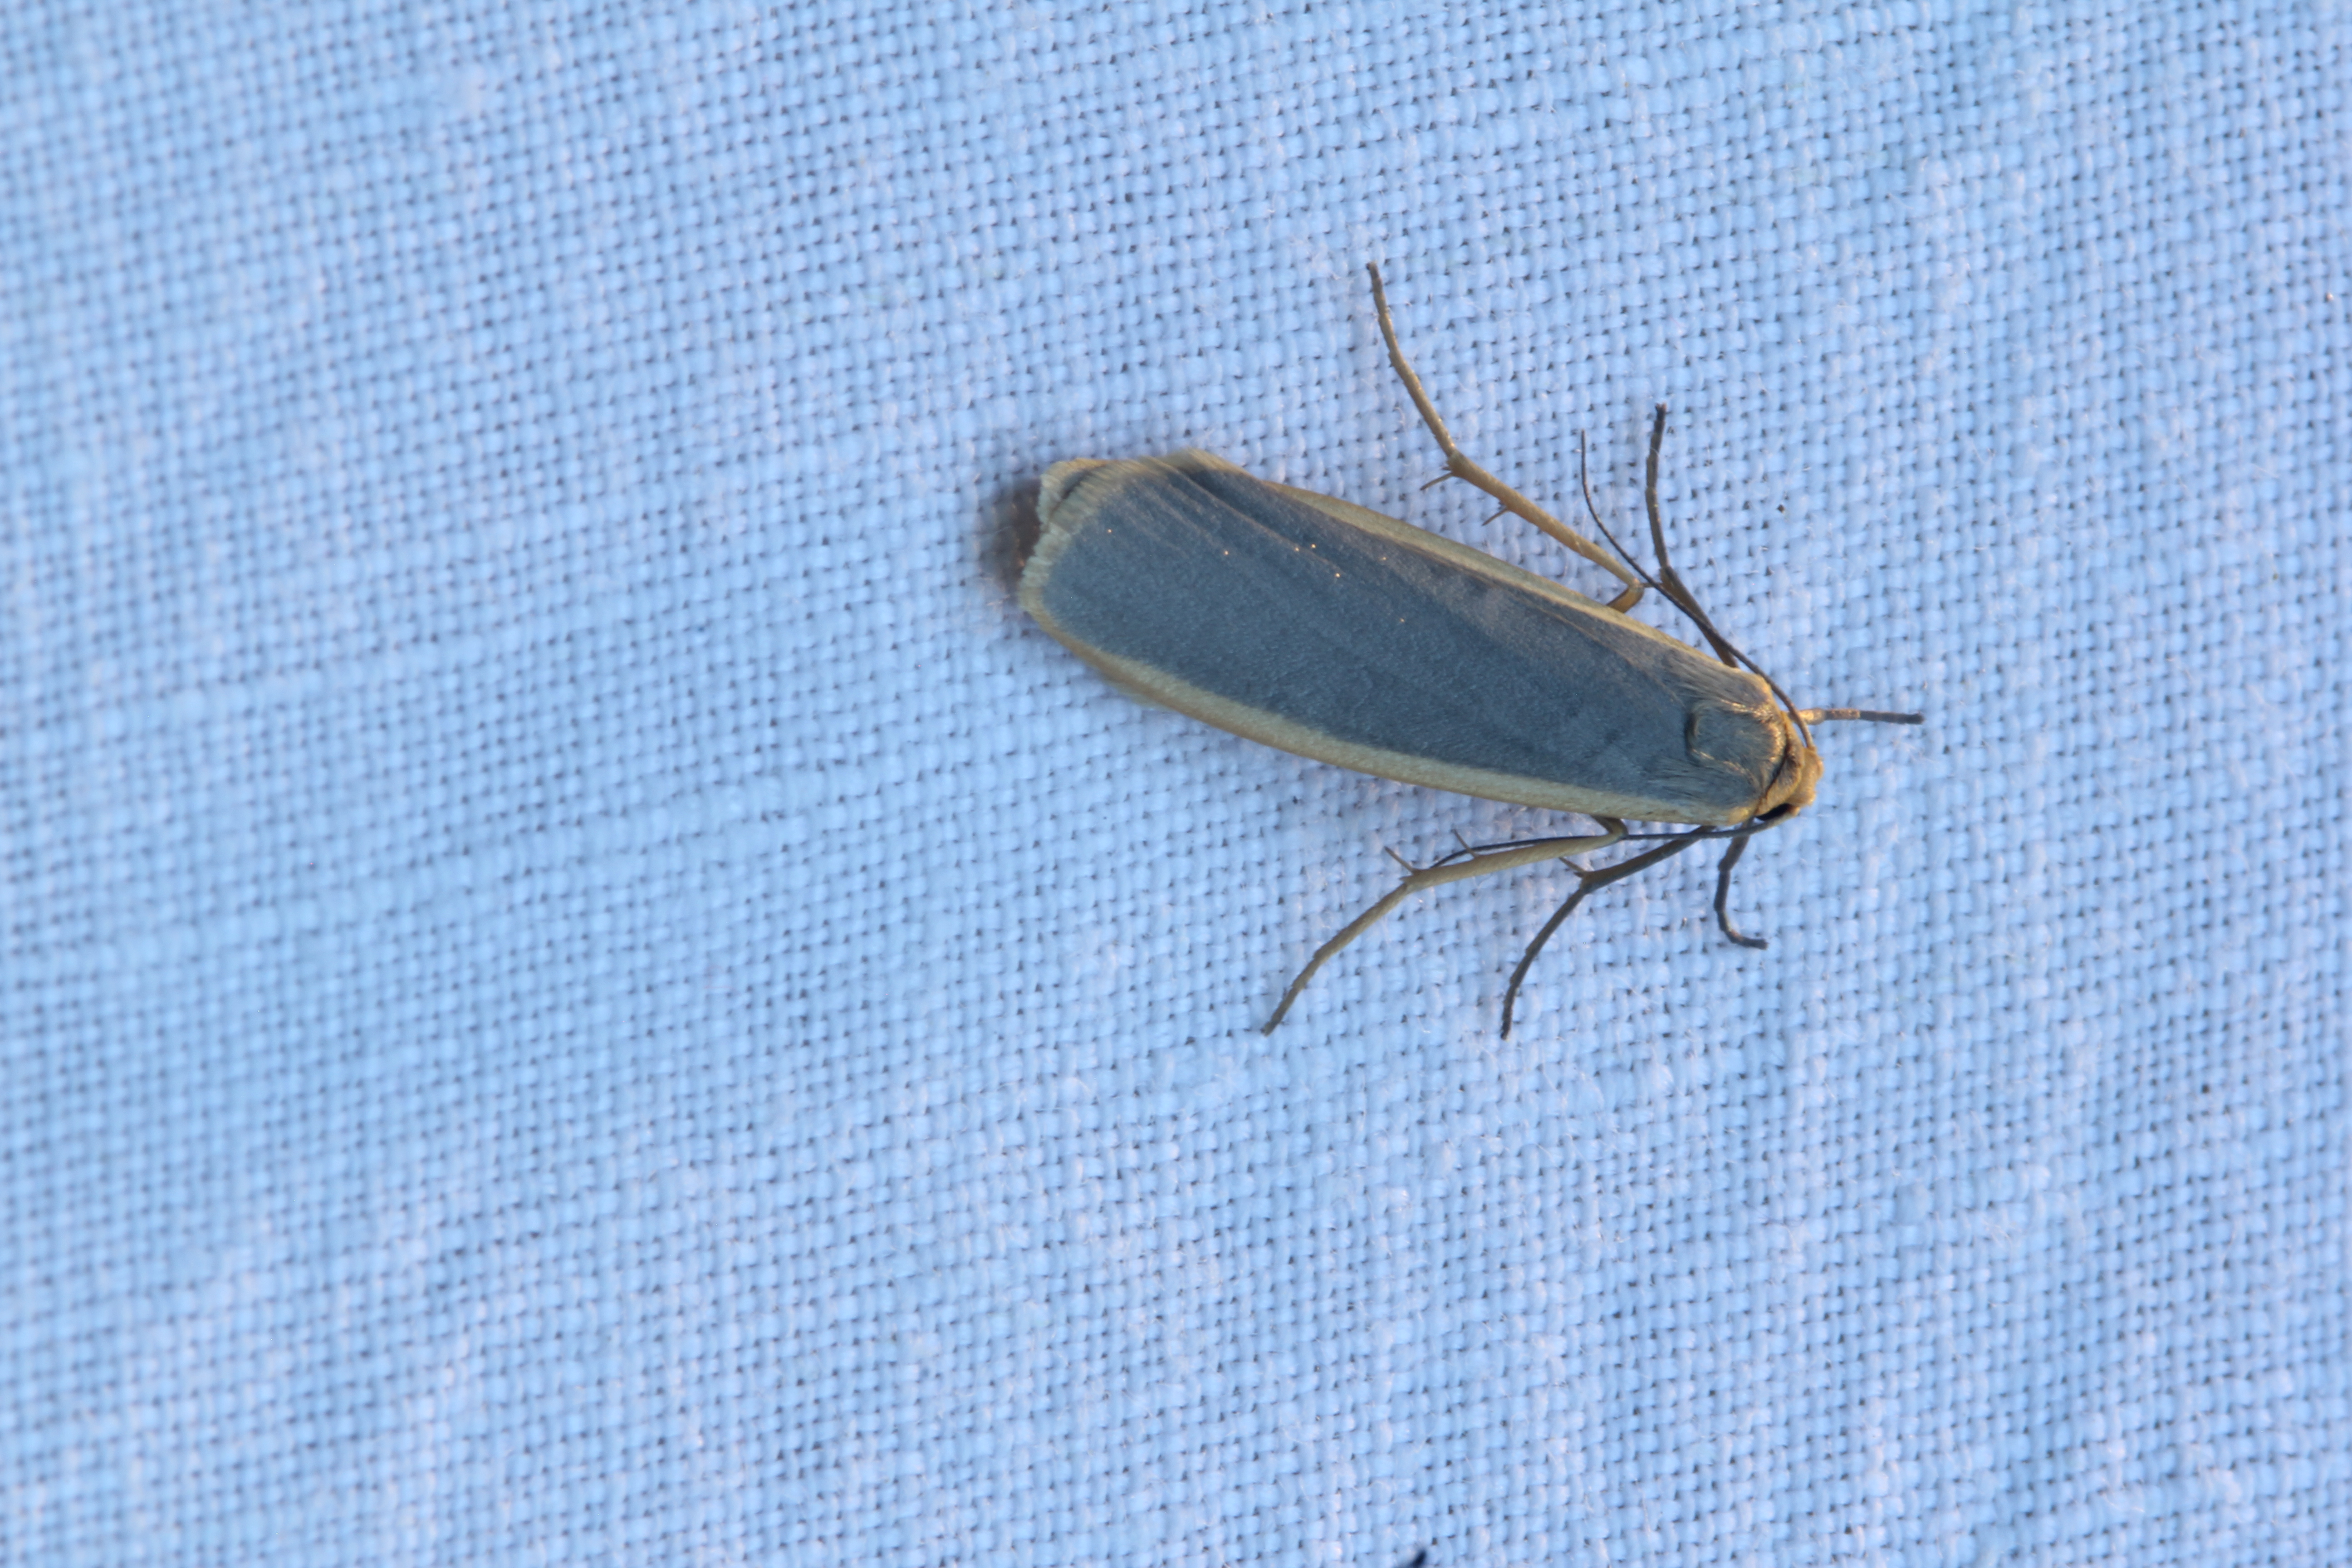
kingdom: Animalia
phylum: Arthropoda
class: Insecta
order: Lepidoptera
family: Erebidae
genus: Nyea
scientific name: Nyea lurideola
